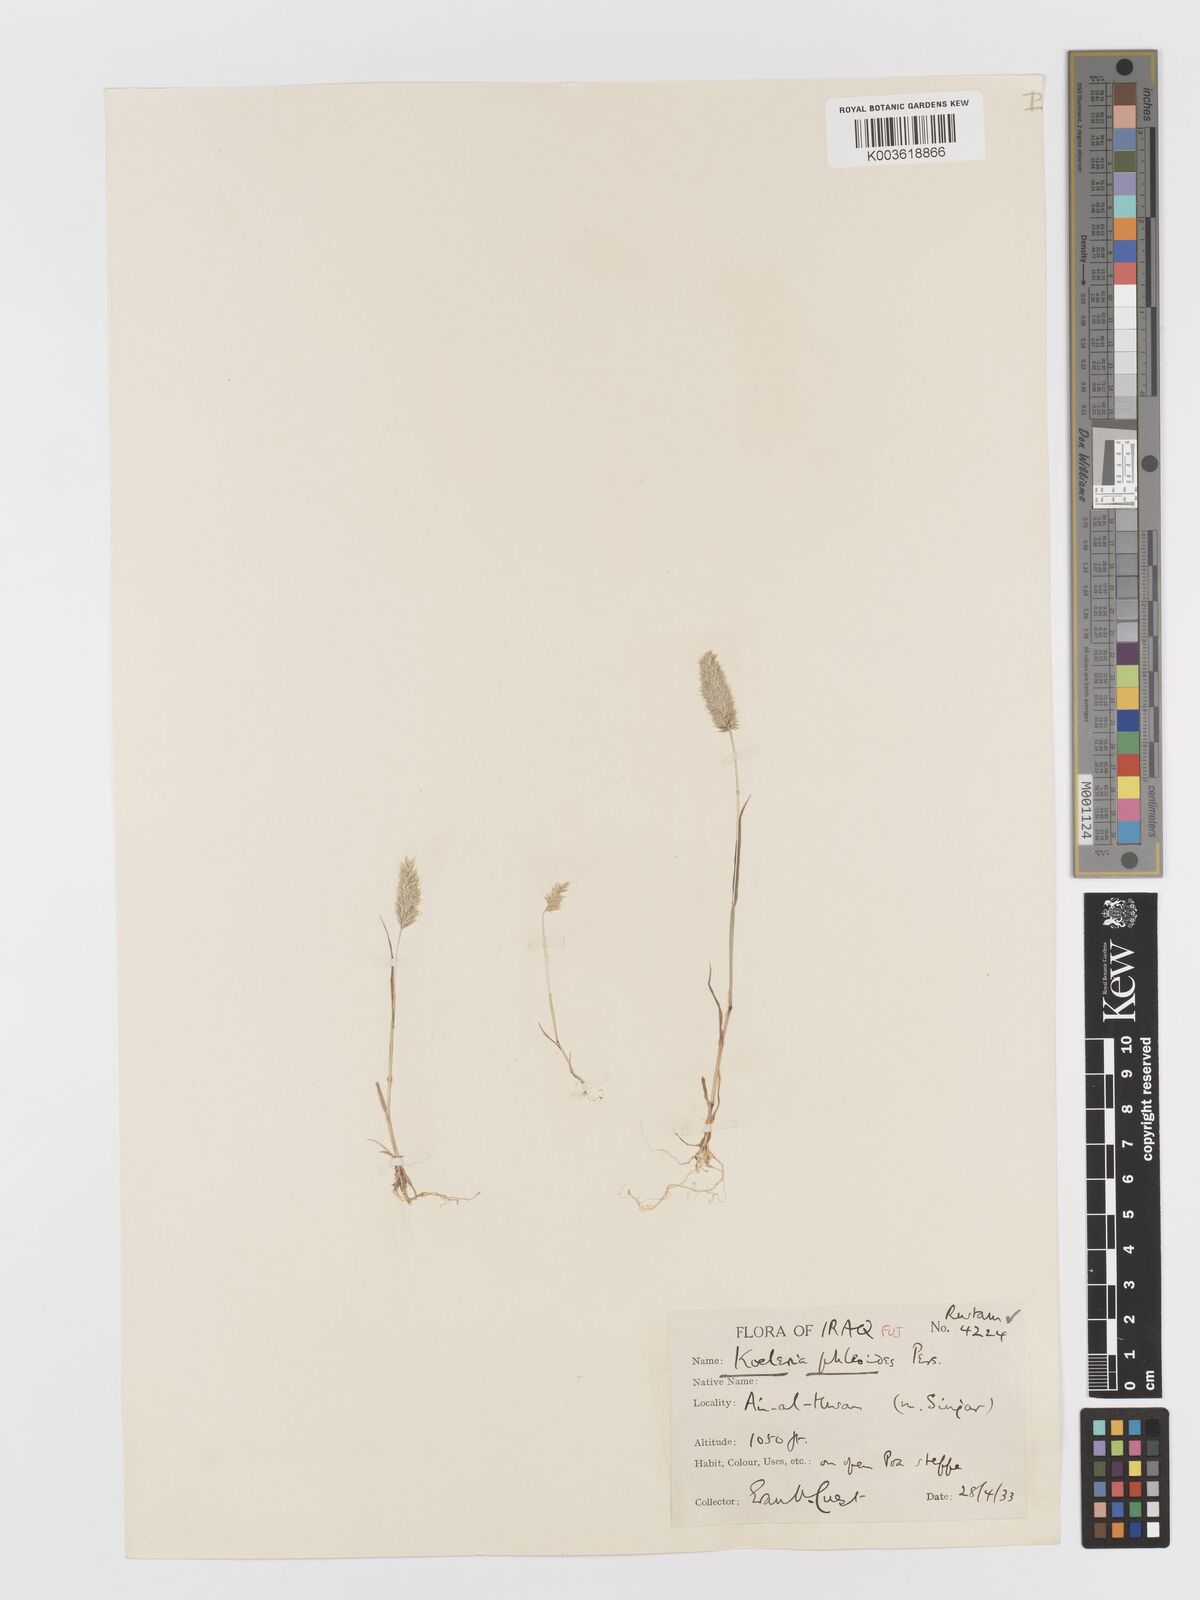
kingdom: Plantae
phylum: Tracheophyta
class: Liliopsida
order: Poales
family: Poaceae
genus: Rostraria
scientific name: Rostraria cristata
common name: Mediterranean hair-grass
